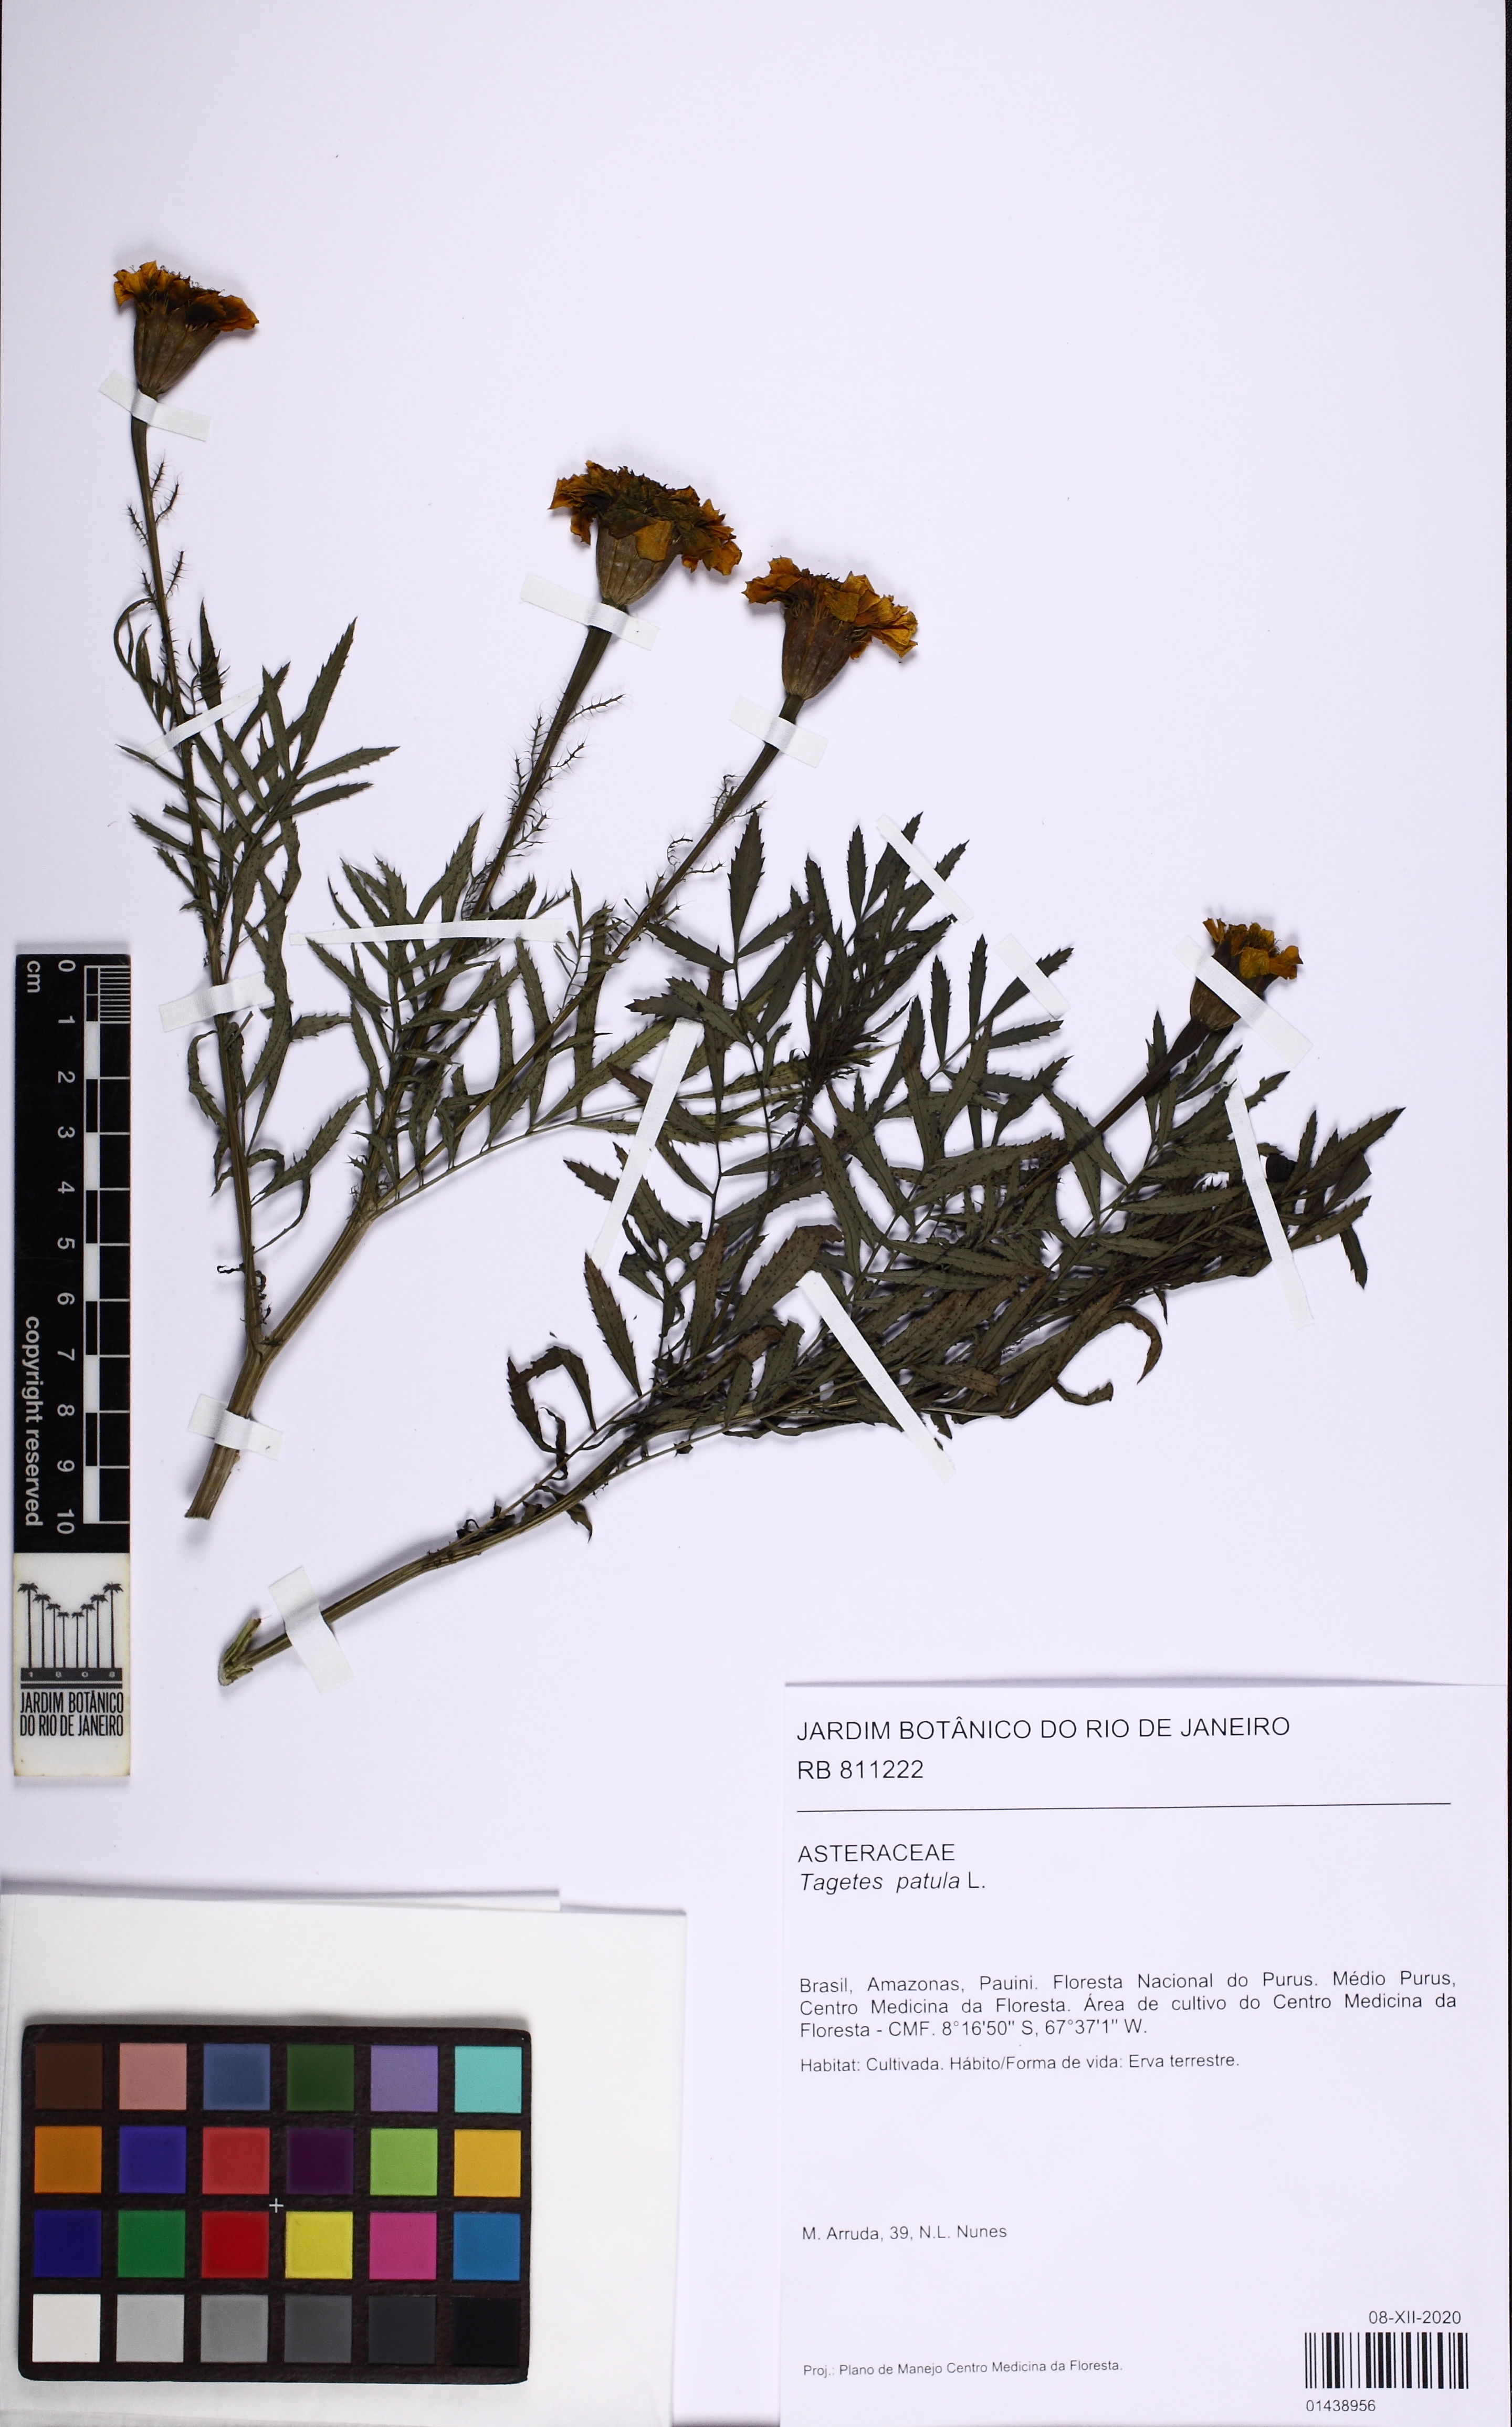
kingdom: Plantae
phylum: Tracheophyta
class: Magnoliopsida
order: Asterales
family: Asteraceae
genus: Tagetes
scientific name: Tagetes erecta
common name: African marigold
